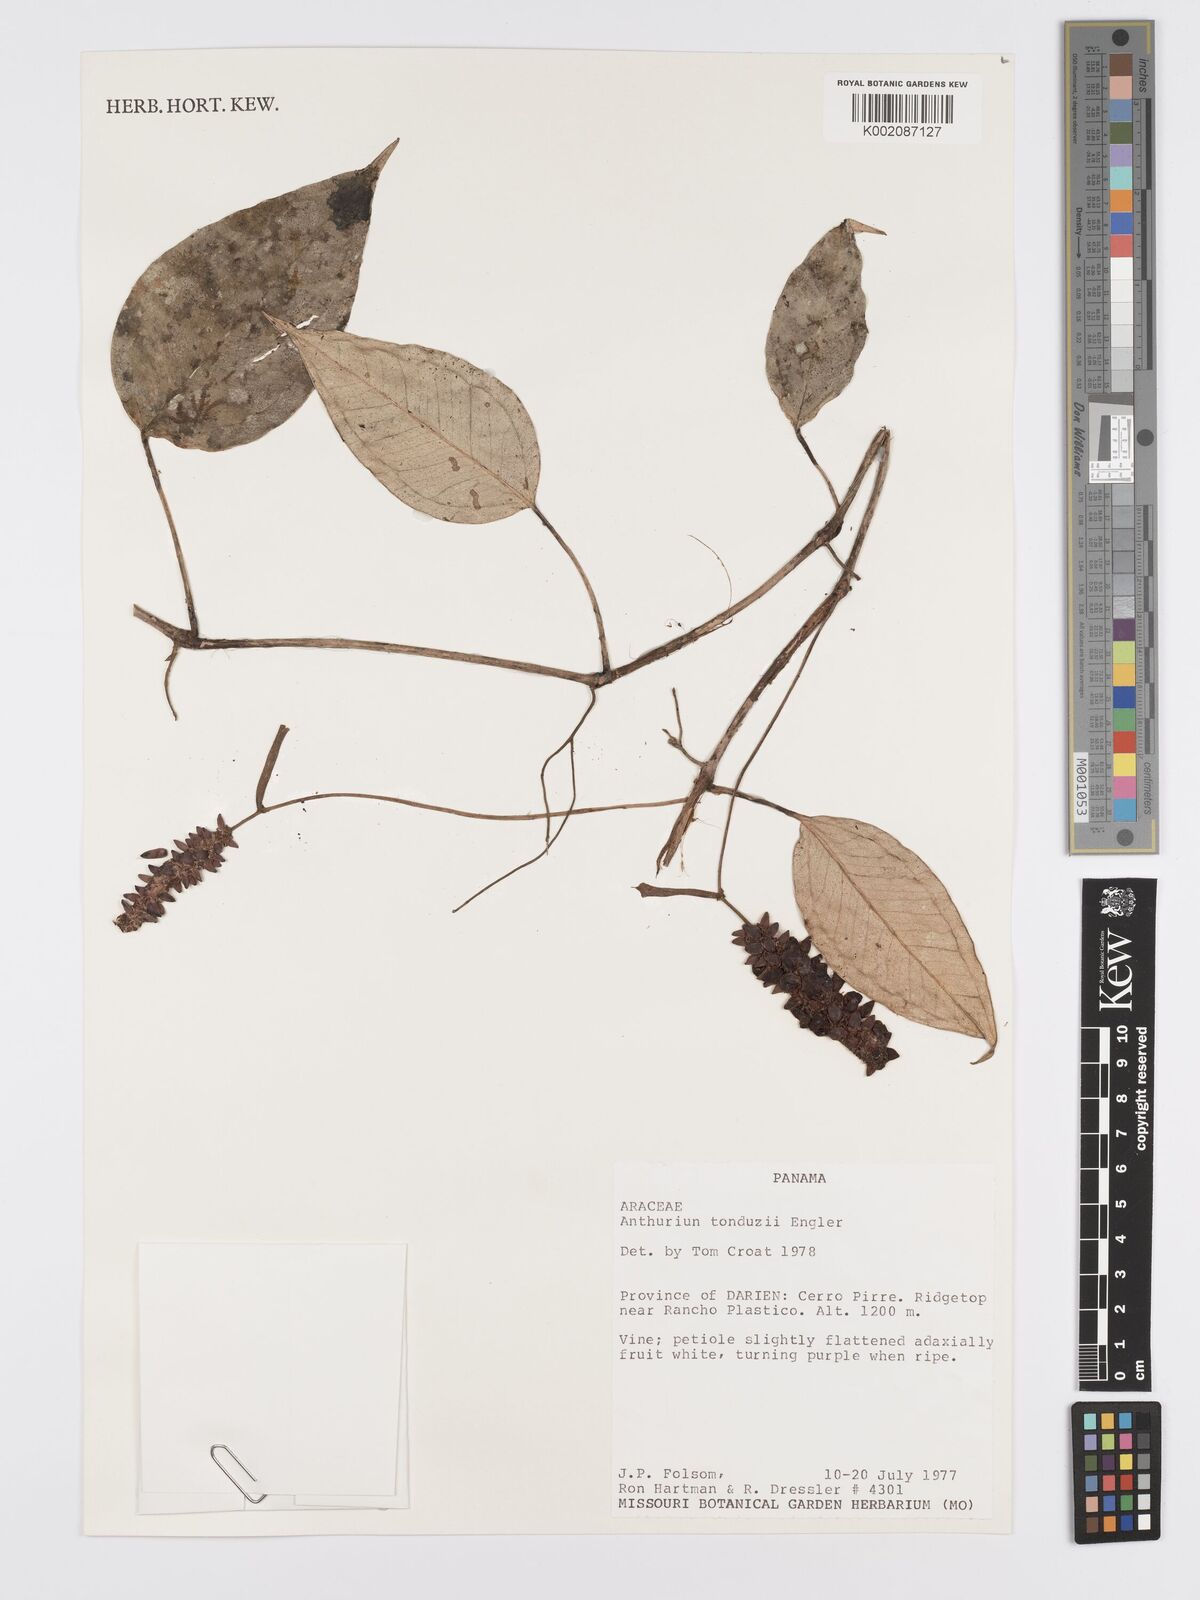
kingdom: Plantae
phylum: Tracheophyta
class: Liliopsida
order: Alismatales
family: Araceae
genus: Anthurium
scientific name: Anthurium tonduzii
